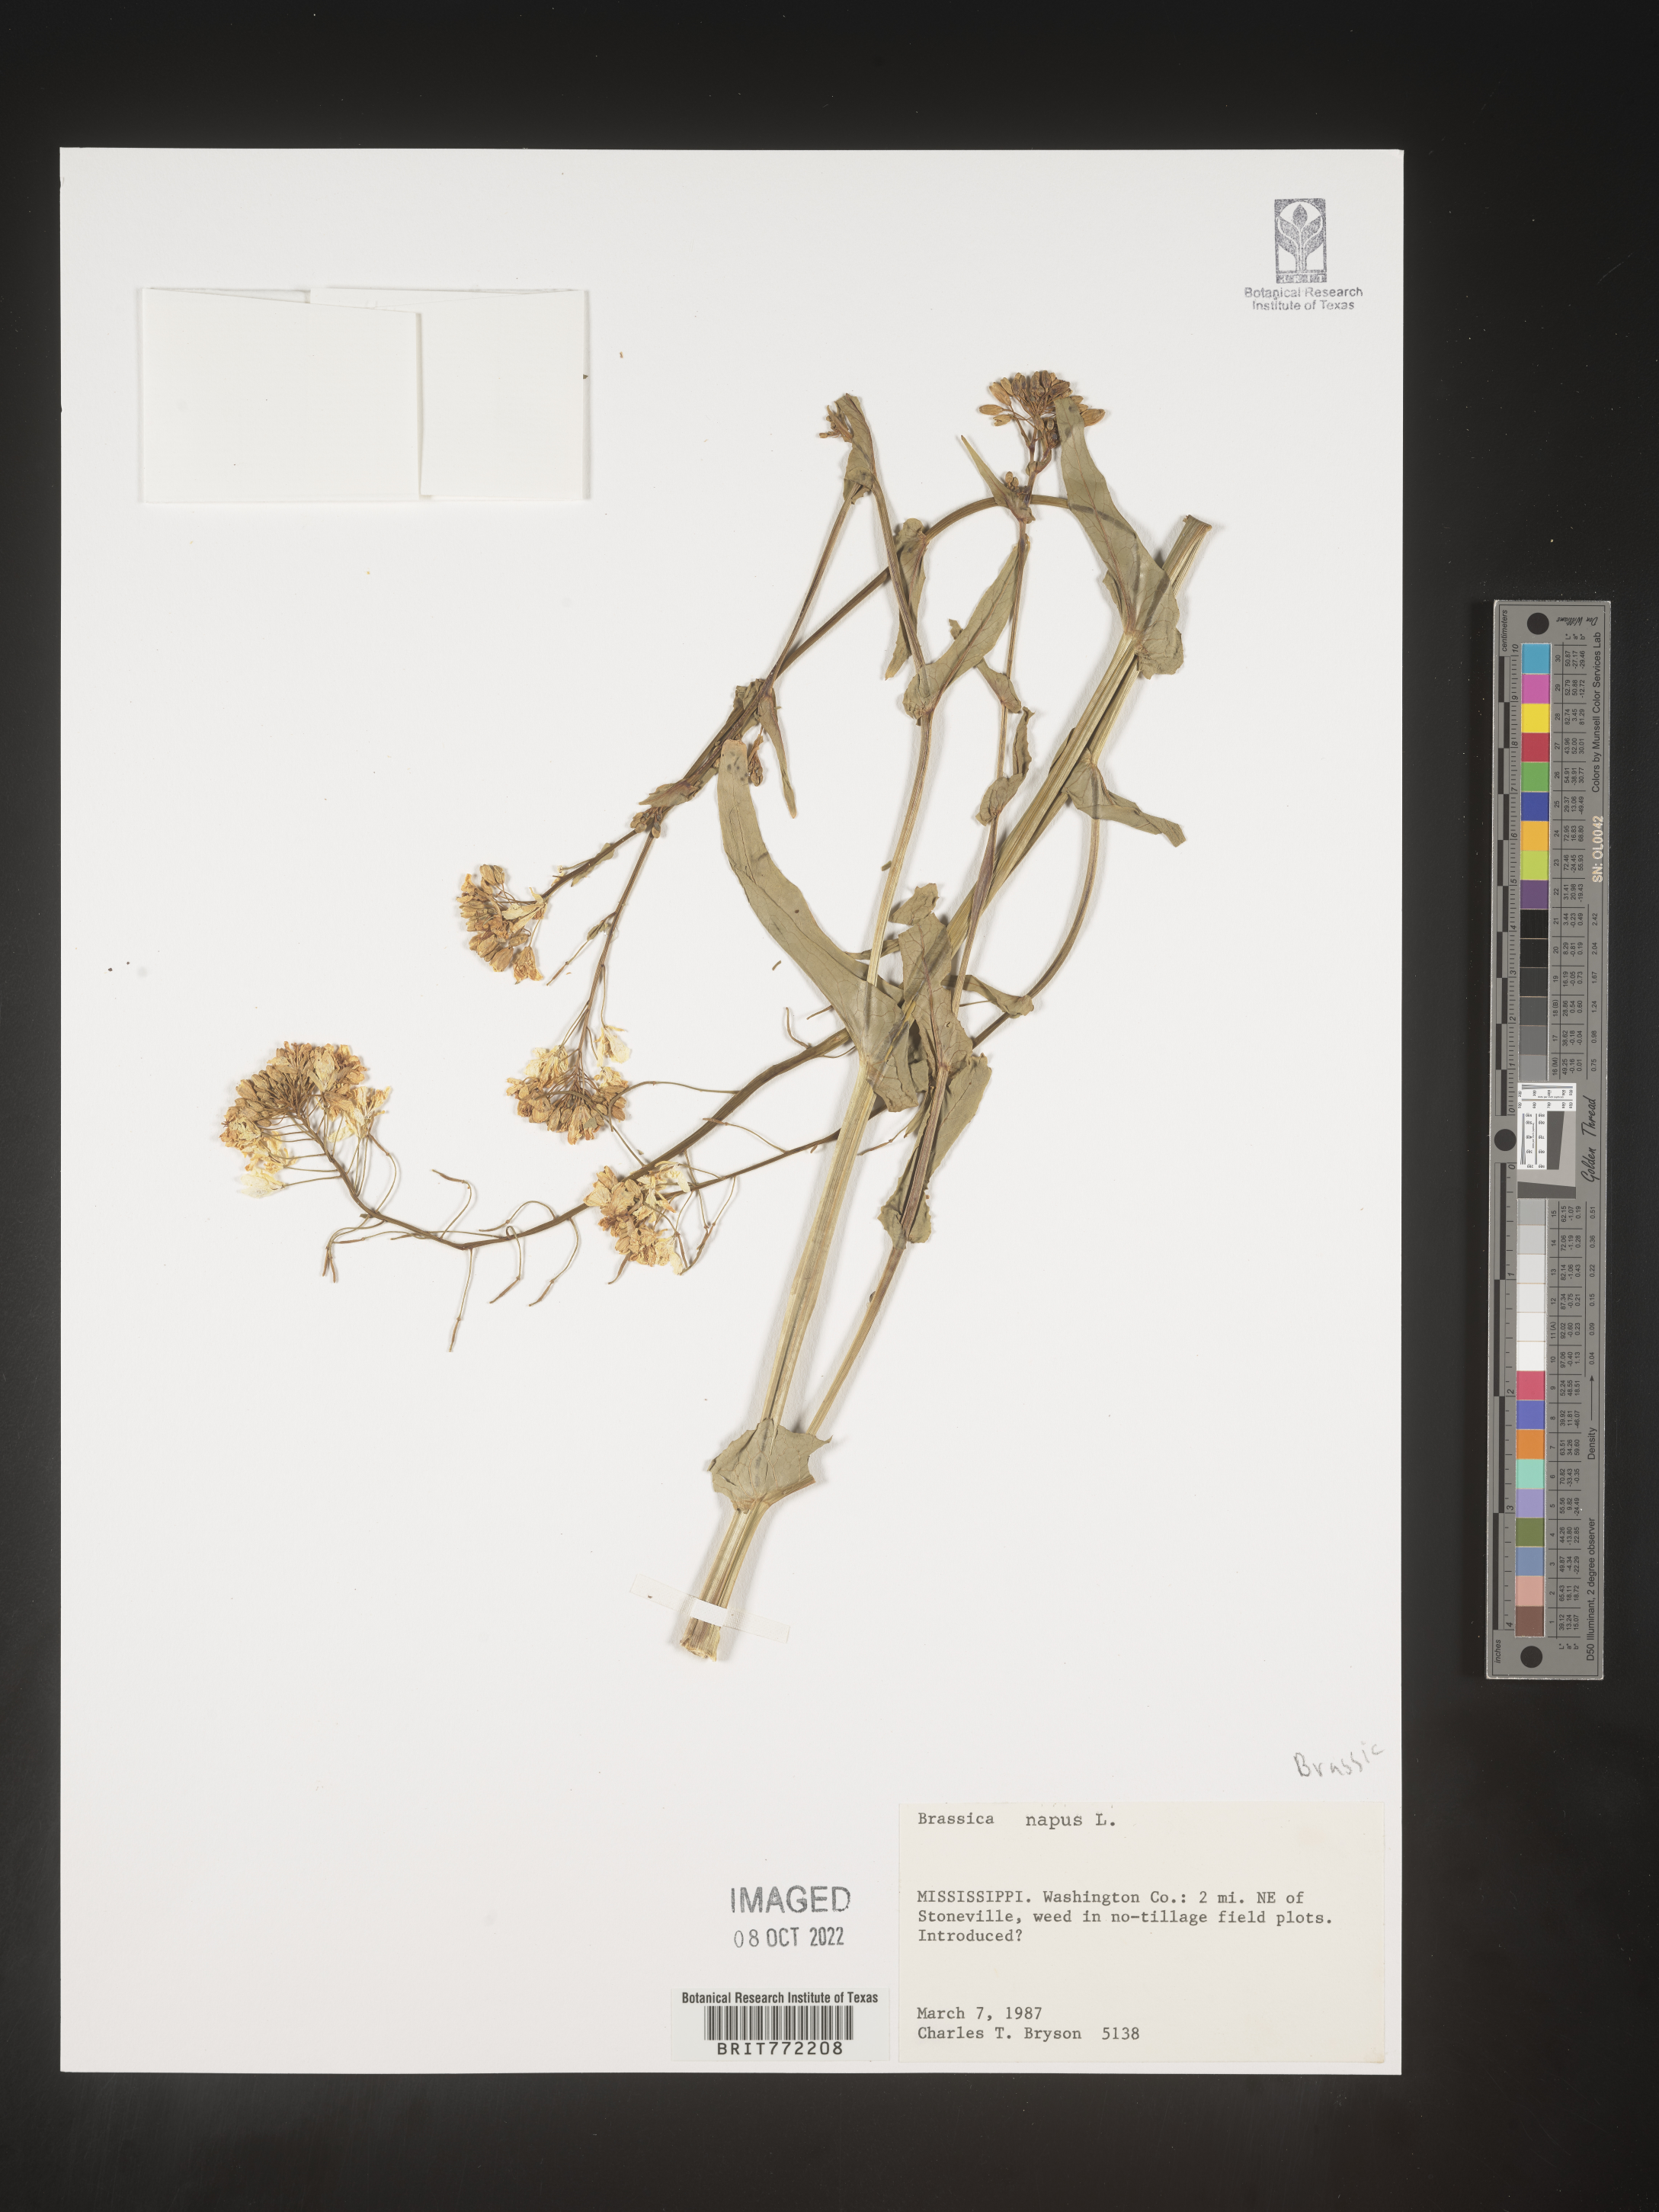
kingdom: Plantae
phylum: Tracheophyta
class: Magnoliopsida
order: Brassicales
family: Brassicaceae
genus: Brassica
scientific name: Brassica napus
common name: Rape
